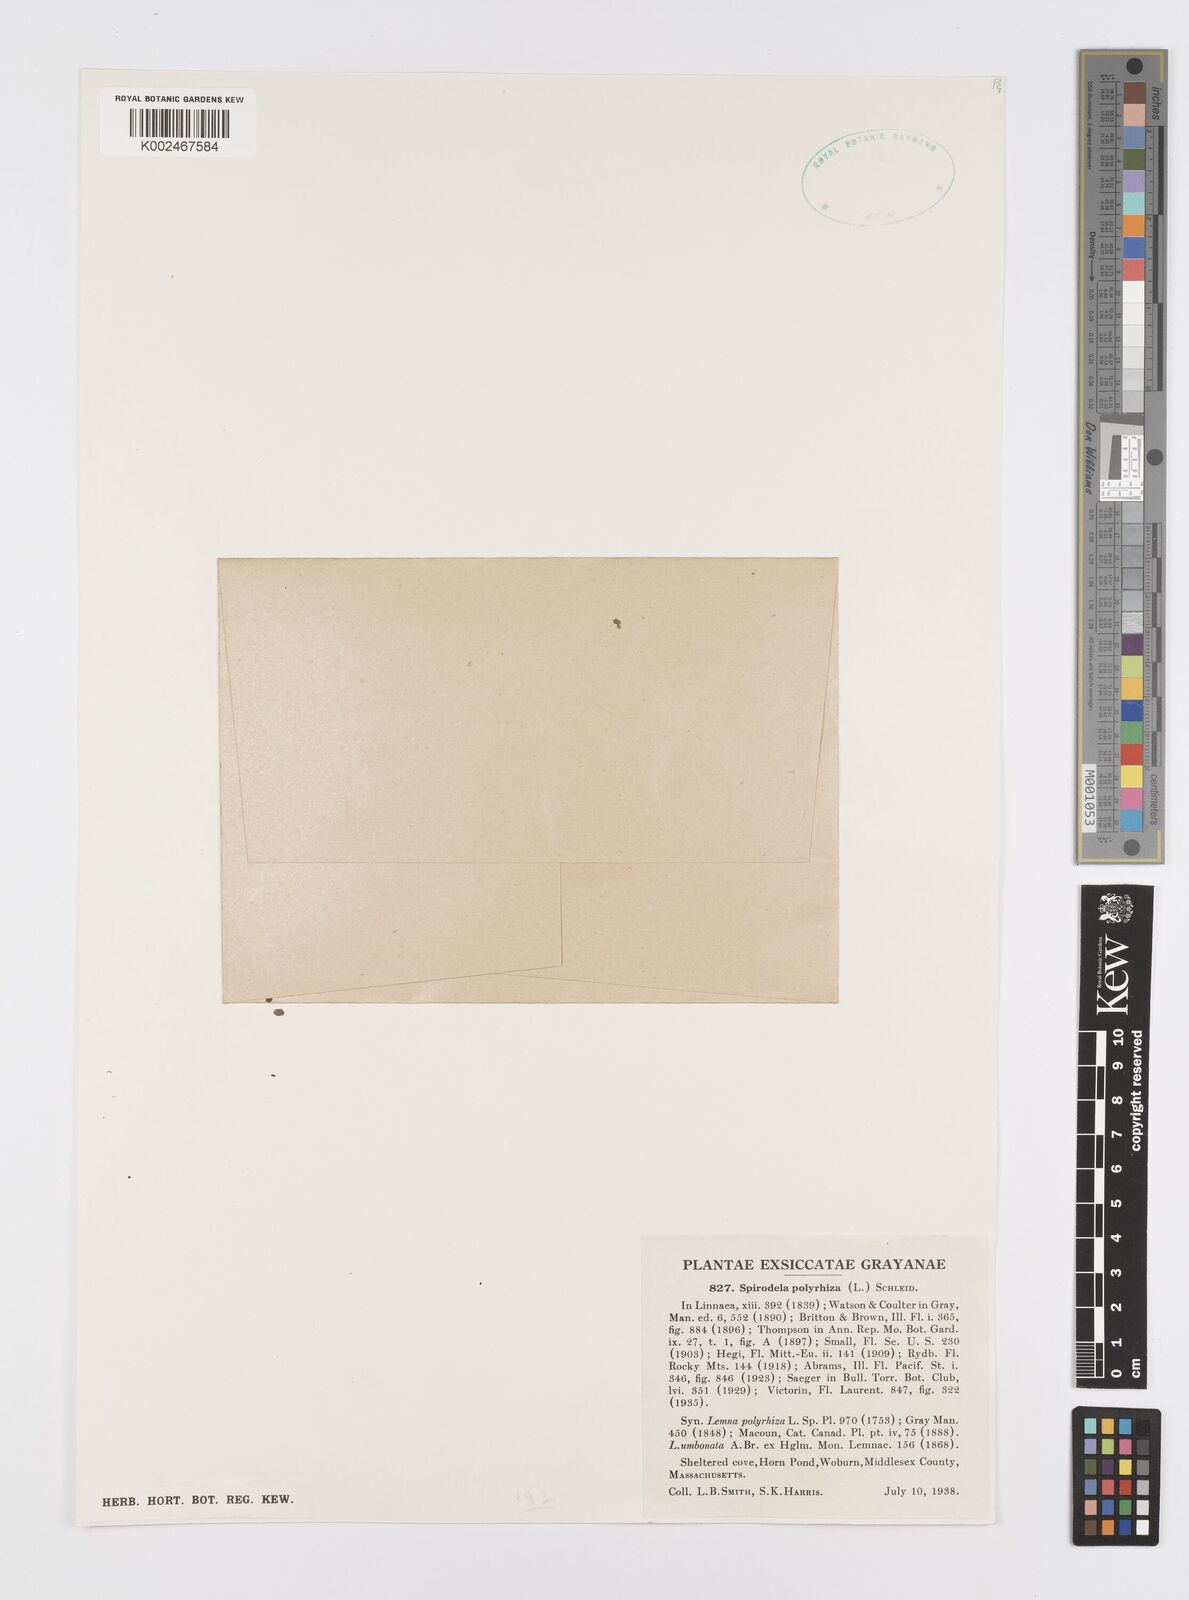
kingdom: Plantae
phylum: Tracheophyta
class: Liliopsida
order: Alismatales
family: Araceae
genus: Spirodela
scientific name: Spirodela polyrhiza
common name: Great duckweed
